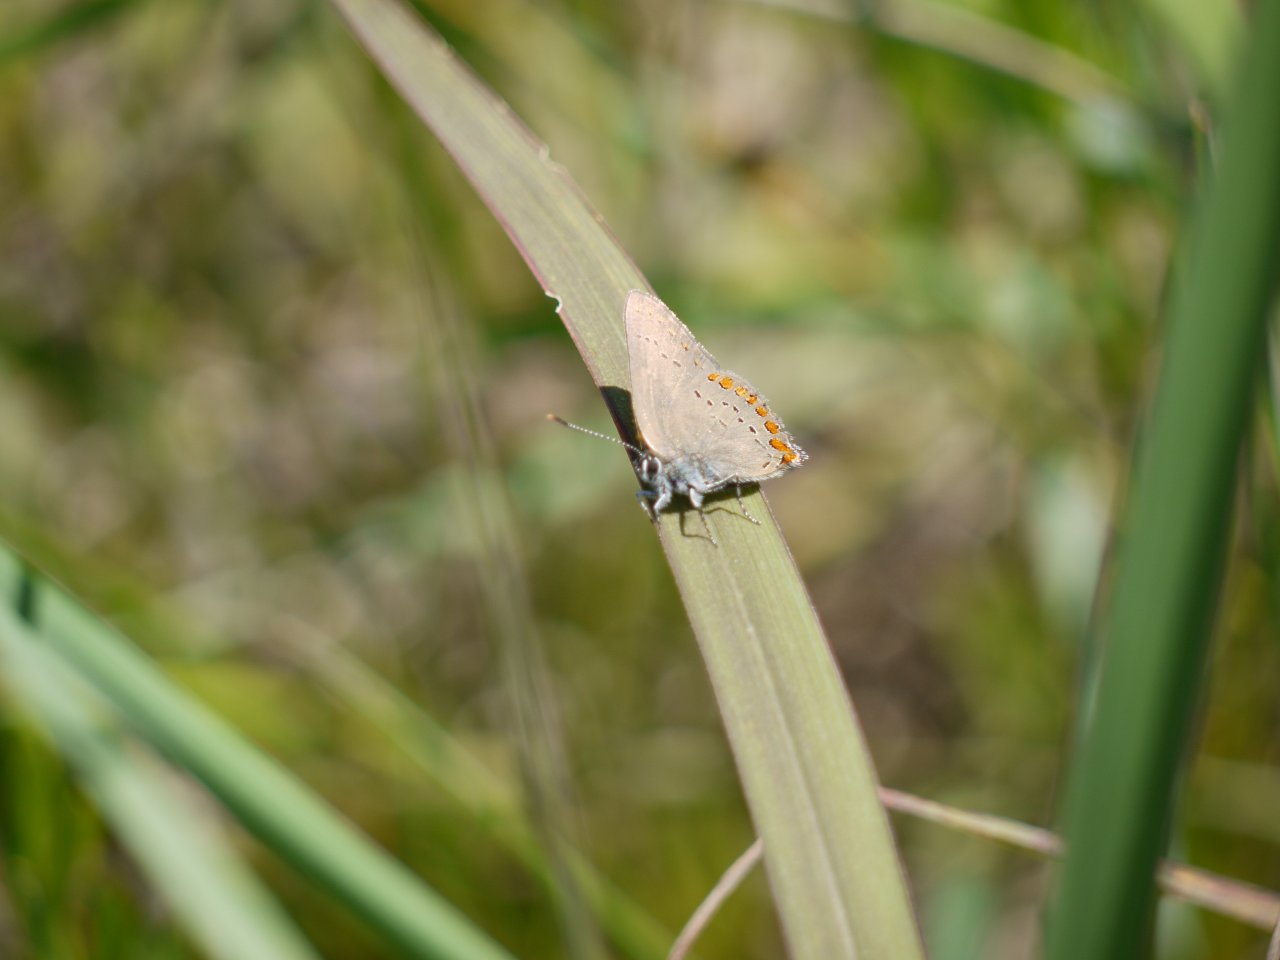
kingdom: Animalia
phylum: Arthropoda
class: Insecta
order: Lepidoptera
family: Lycaenidae
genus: Harkenclenus
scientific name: Harkenclenus titus
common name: Coral Hairstreak
